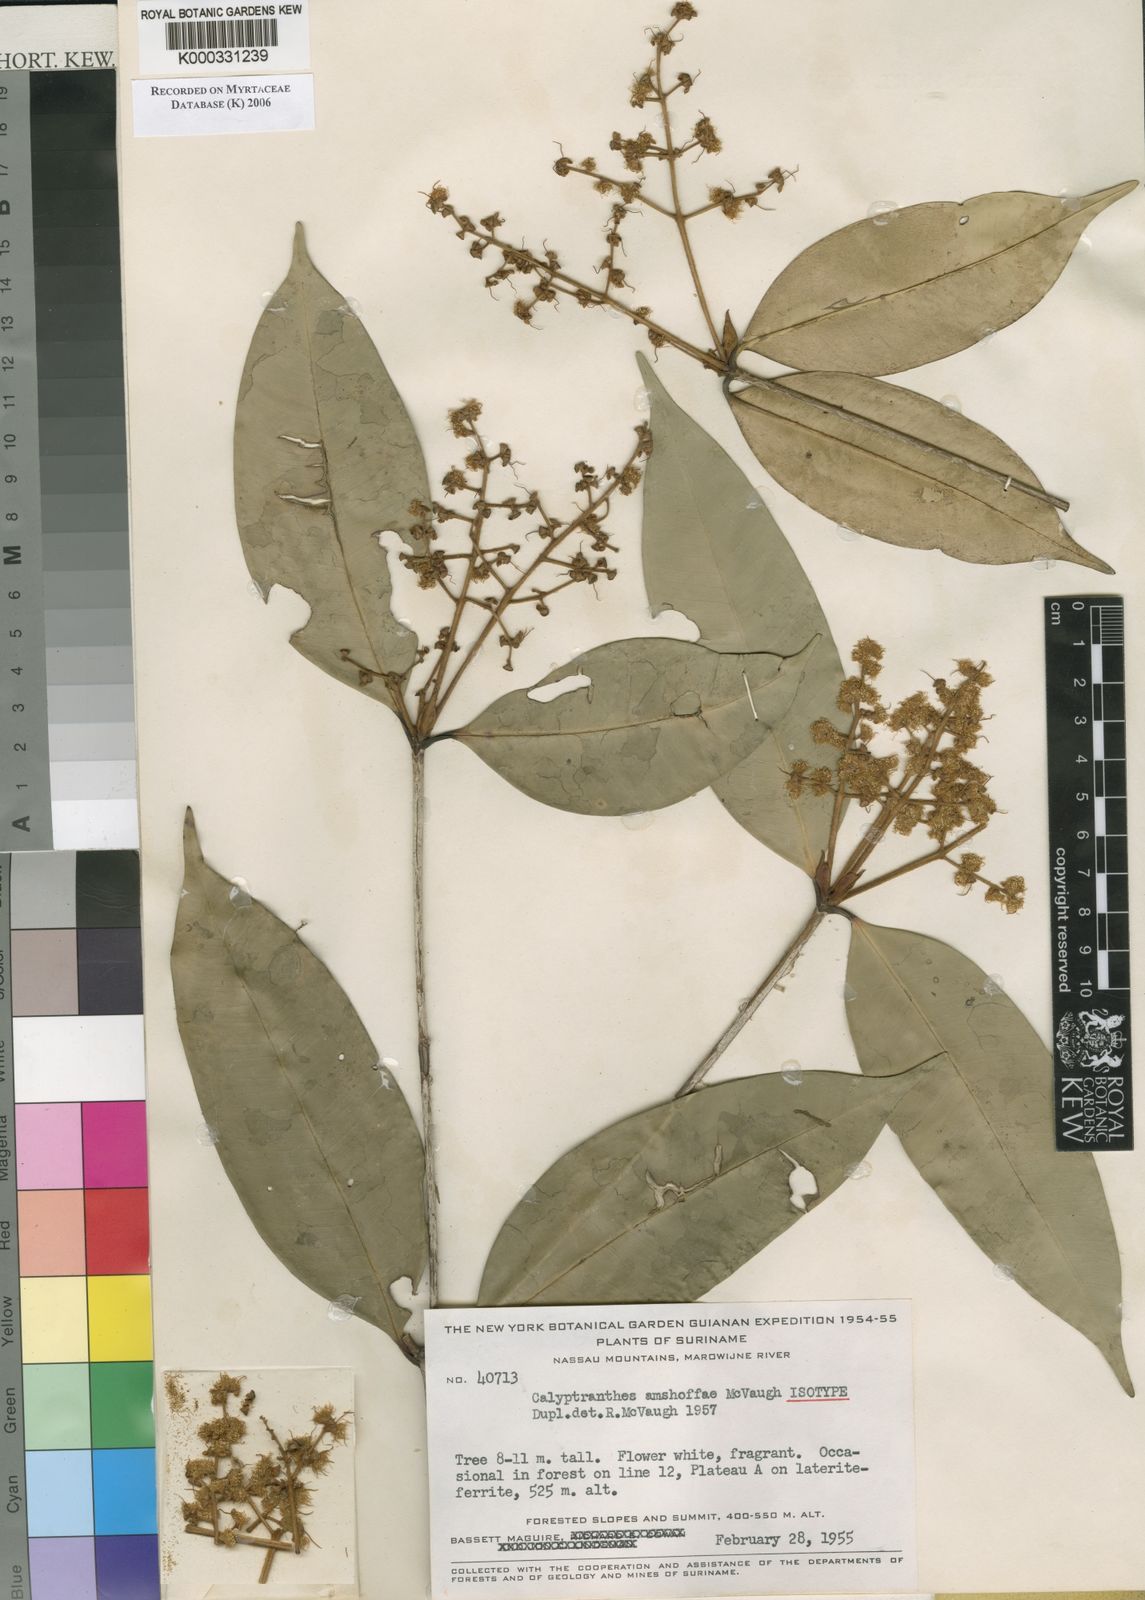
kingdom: Plantae
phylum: Tracheophyta
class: Magnoliopsida
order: Myrtales
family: Myrtaceae
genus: Myrcia
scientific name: Myrcia amshoffae
